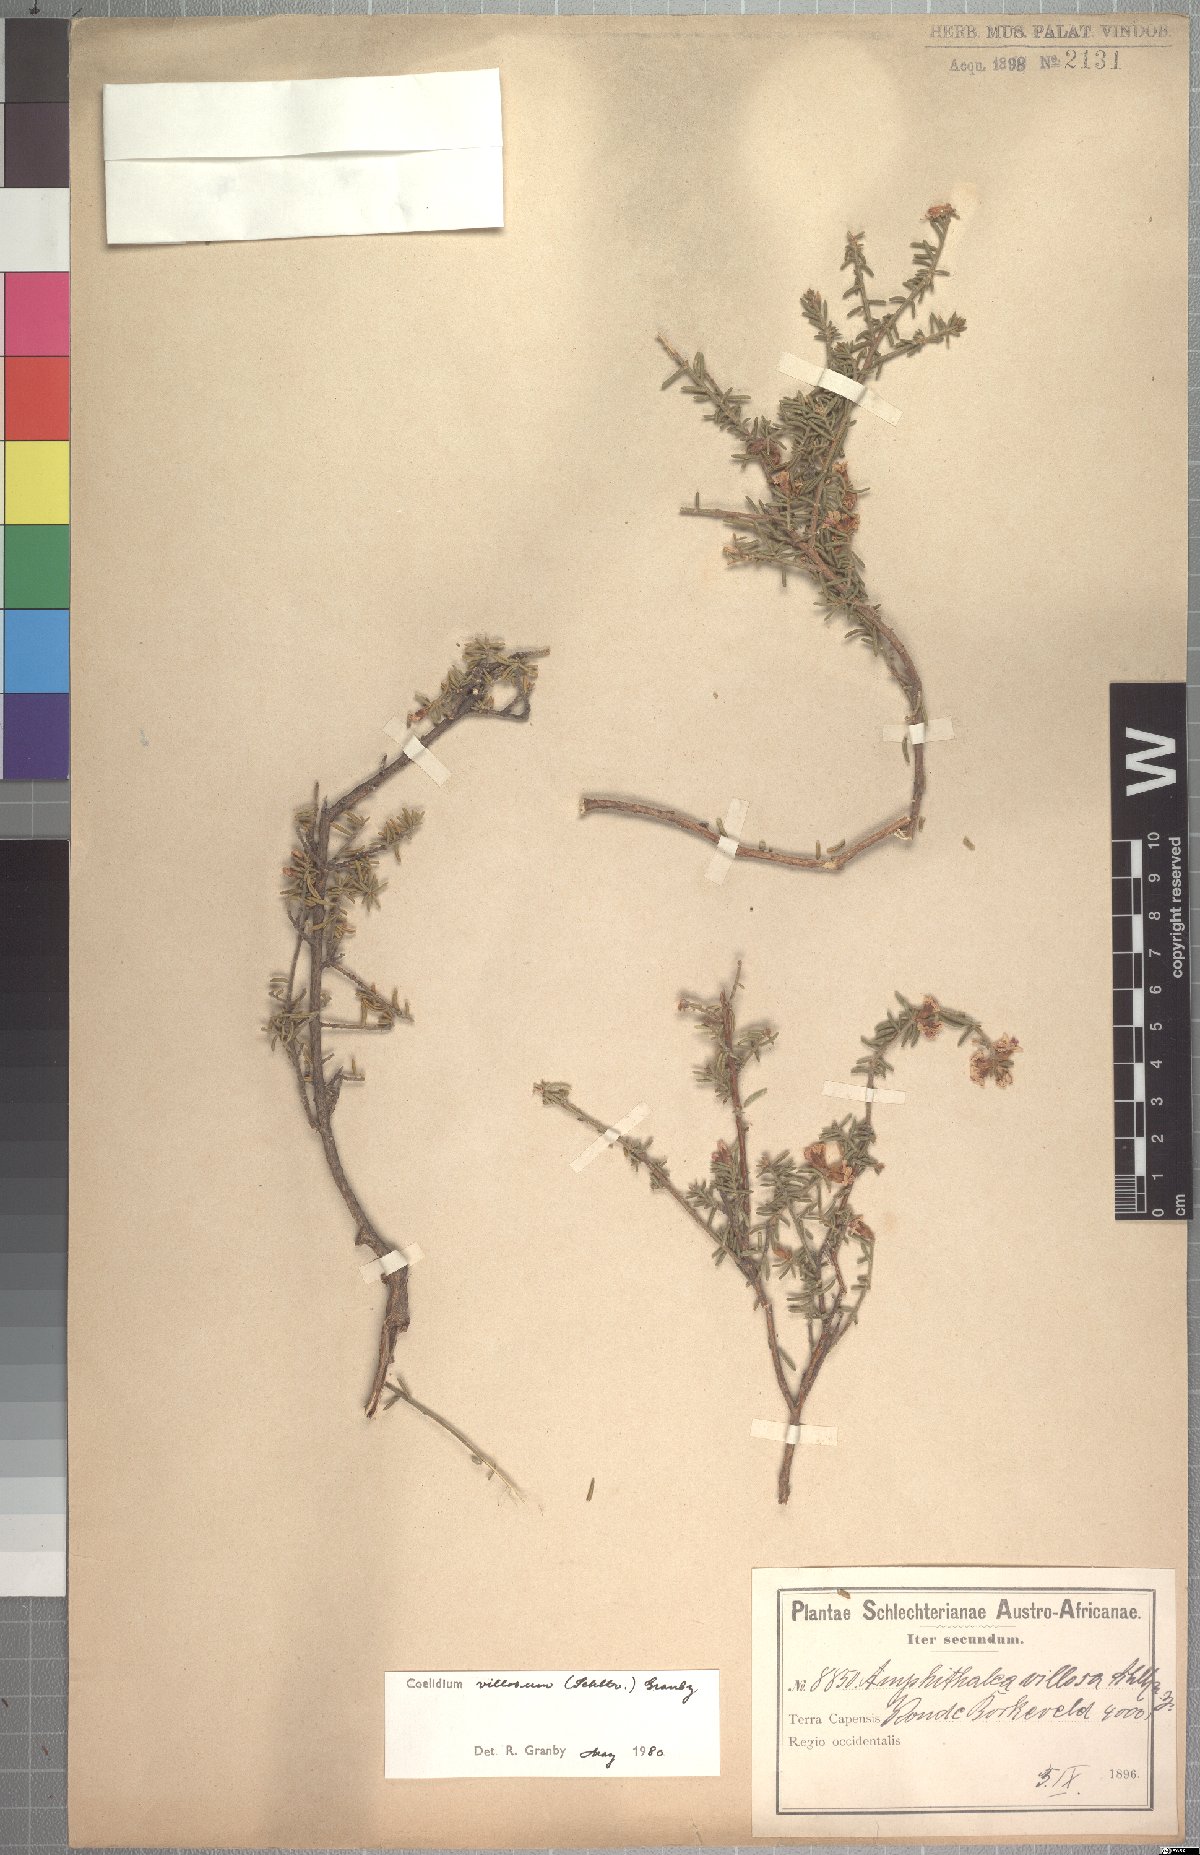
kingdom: Plantae
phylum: Tracheophyta
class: Magnoliopsida
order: Fabales
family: Fabaceae
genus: Amphithalea
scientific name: Amphithalea villosa
